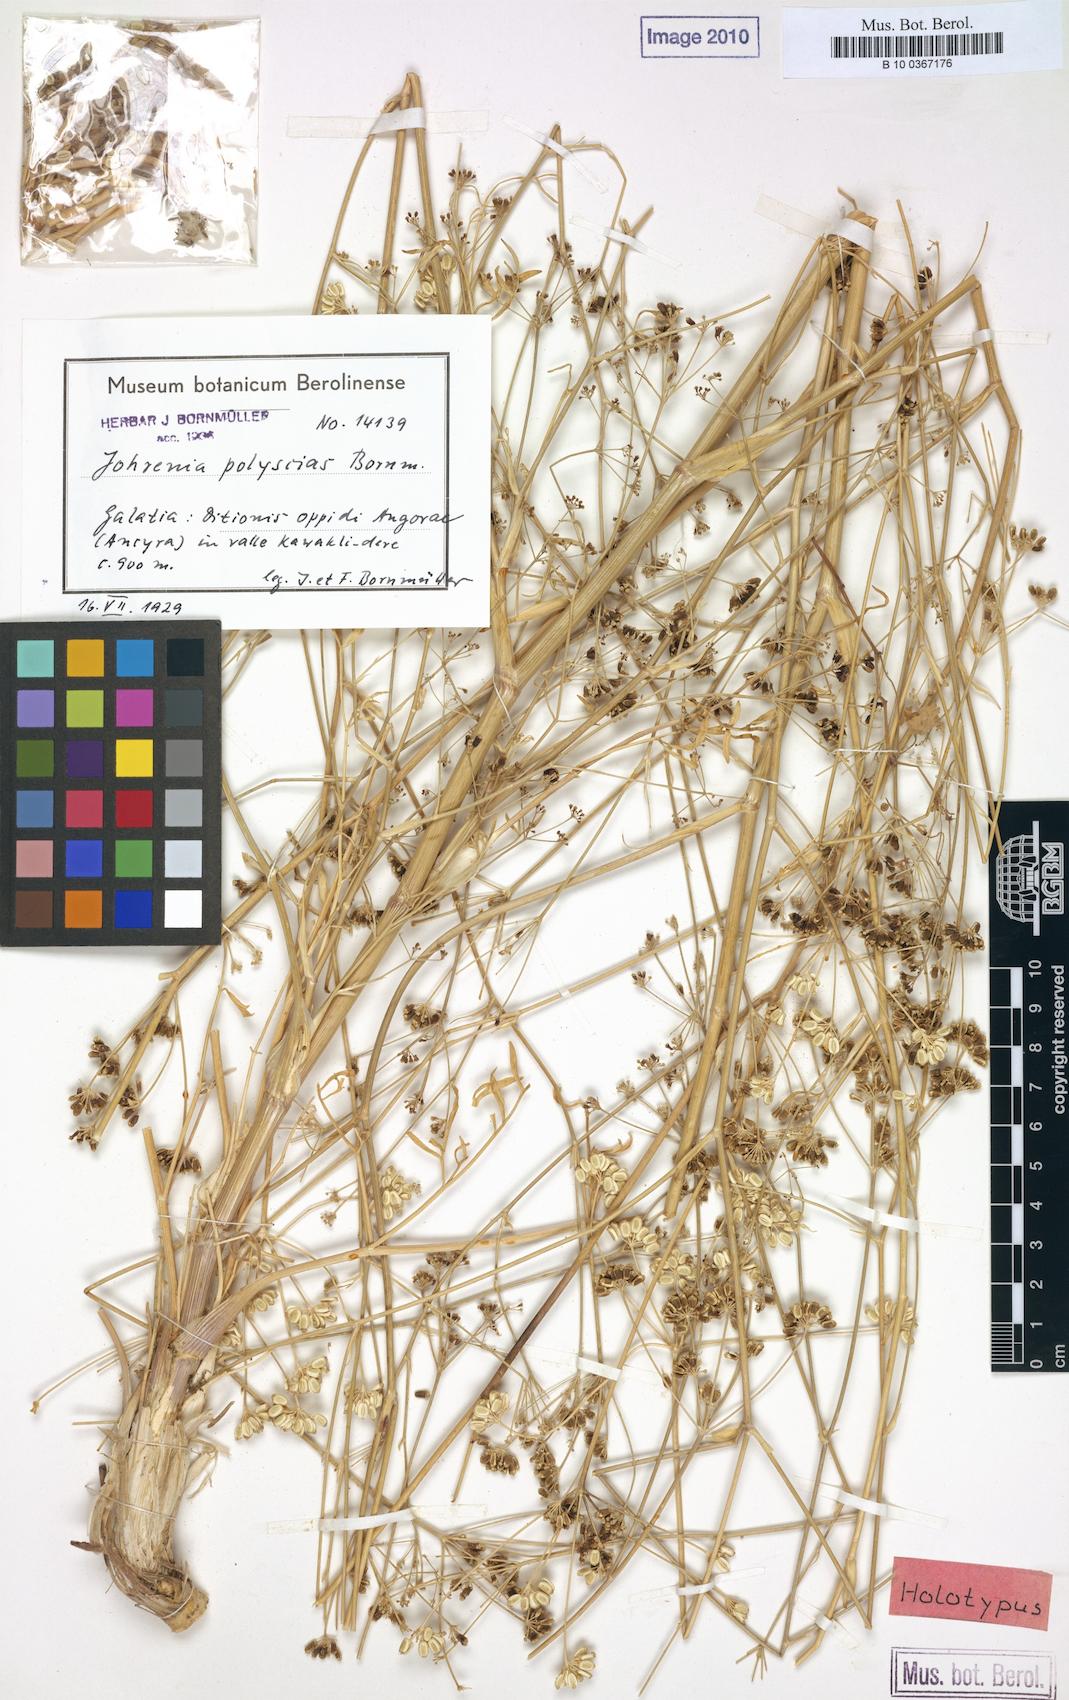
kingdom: Plantae
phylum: Tracheophyta
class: Magnoliopsida
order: Apiales
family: Apiaceae
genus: Johrenia
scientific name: Johrenia polyscias
